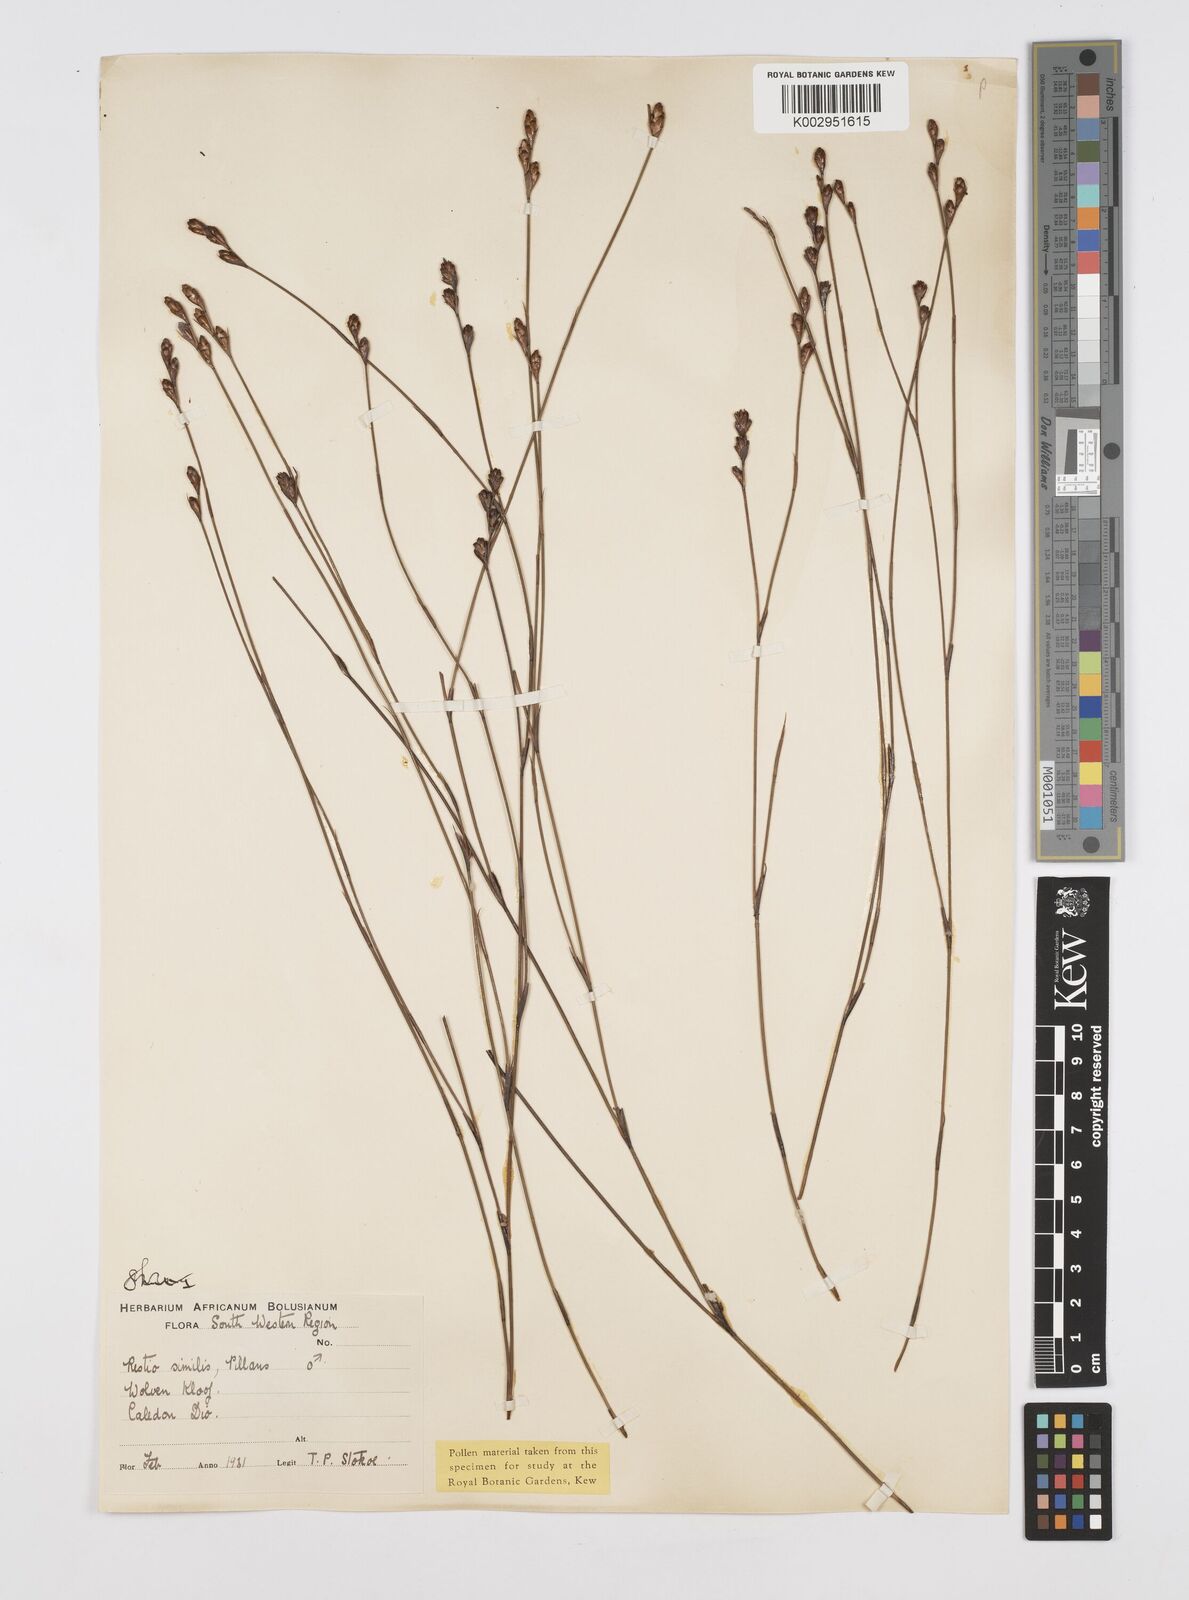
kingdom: Plantae
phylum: Tracheophyta
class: Liliopsida
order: Poales
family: Restionaceae
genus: Restio
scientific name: Restio similis
